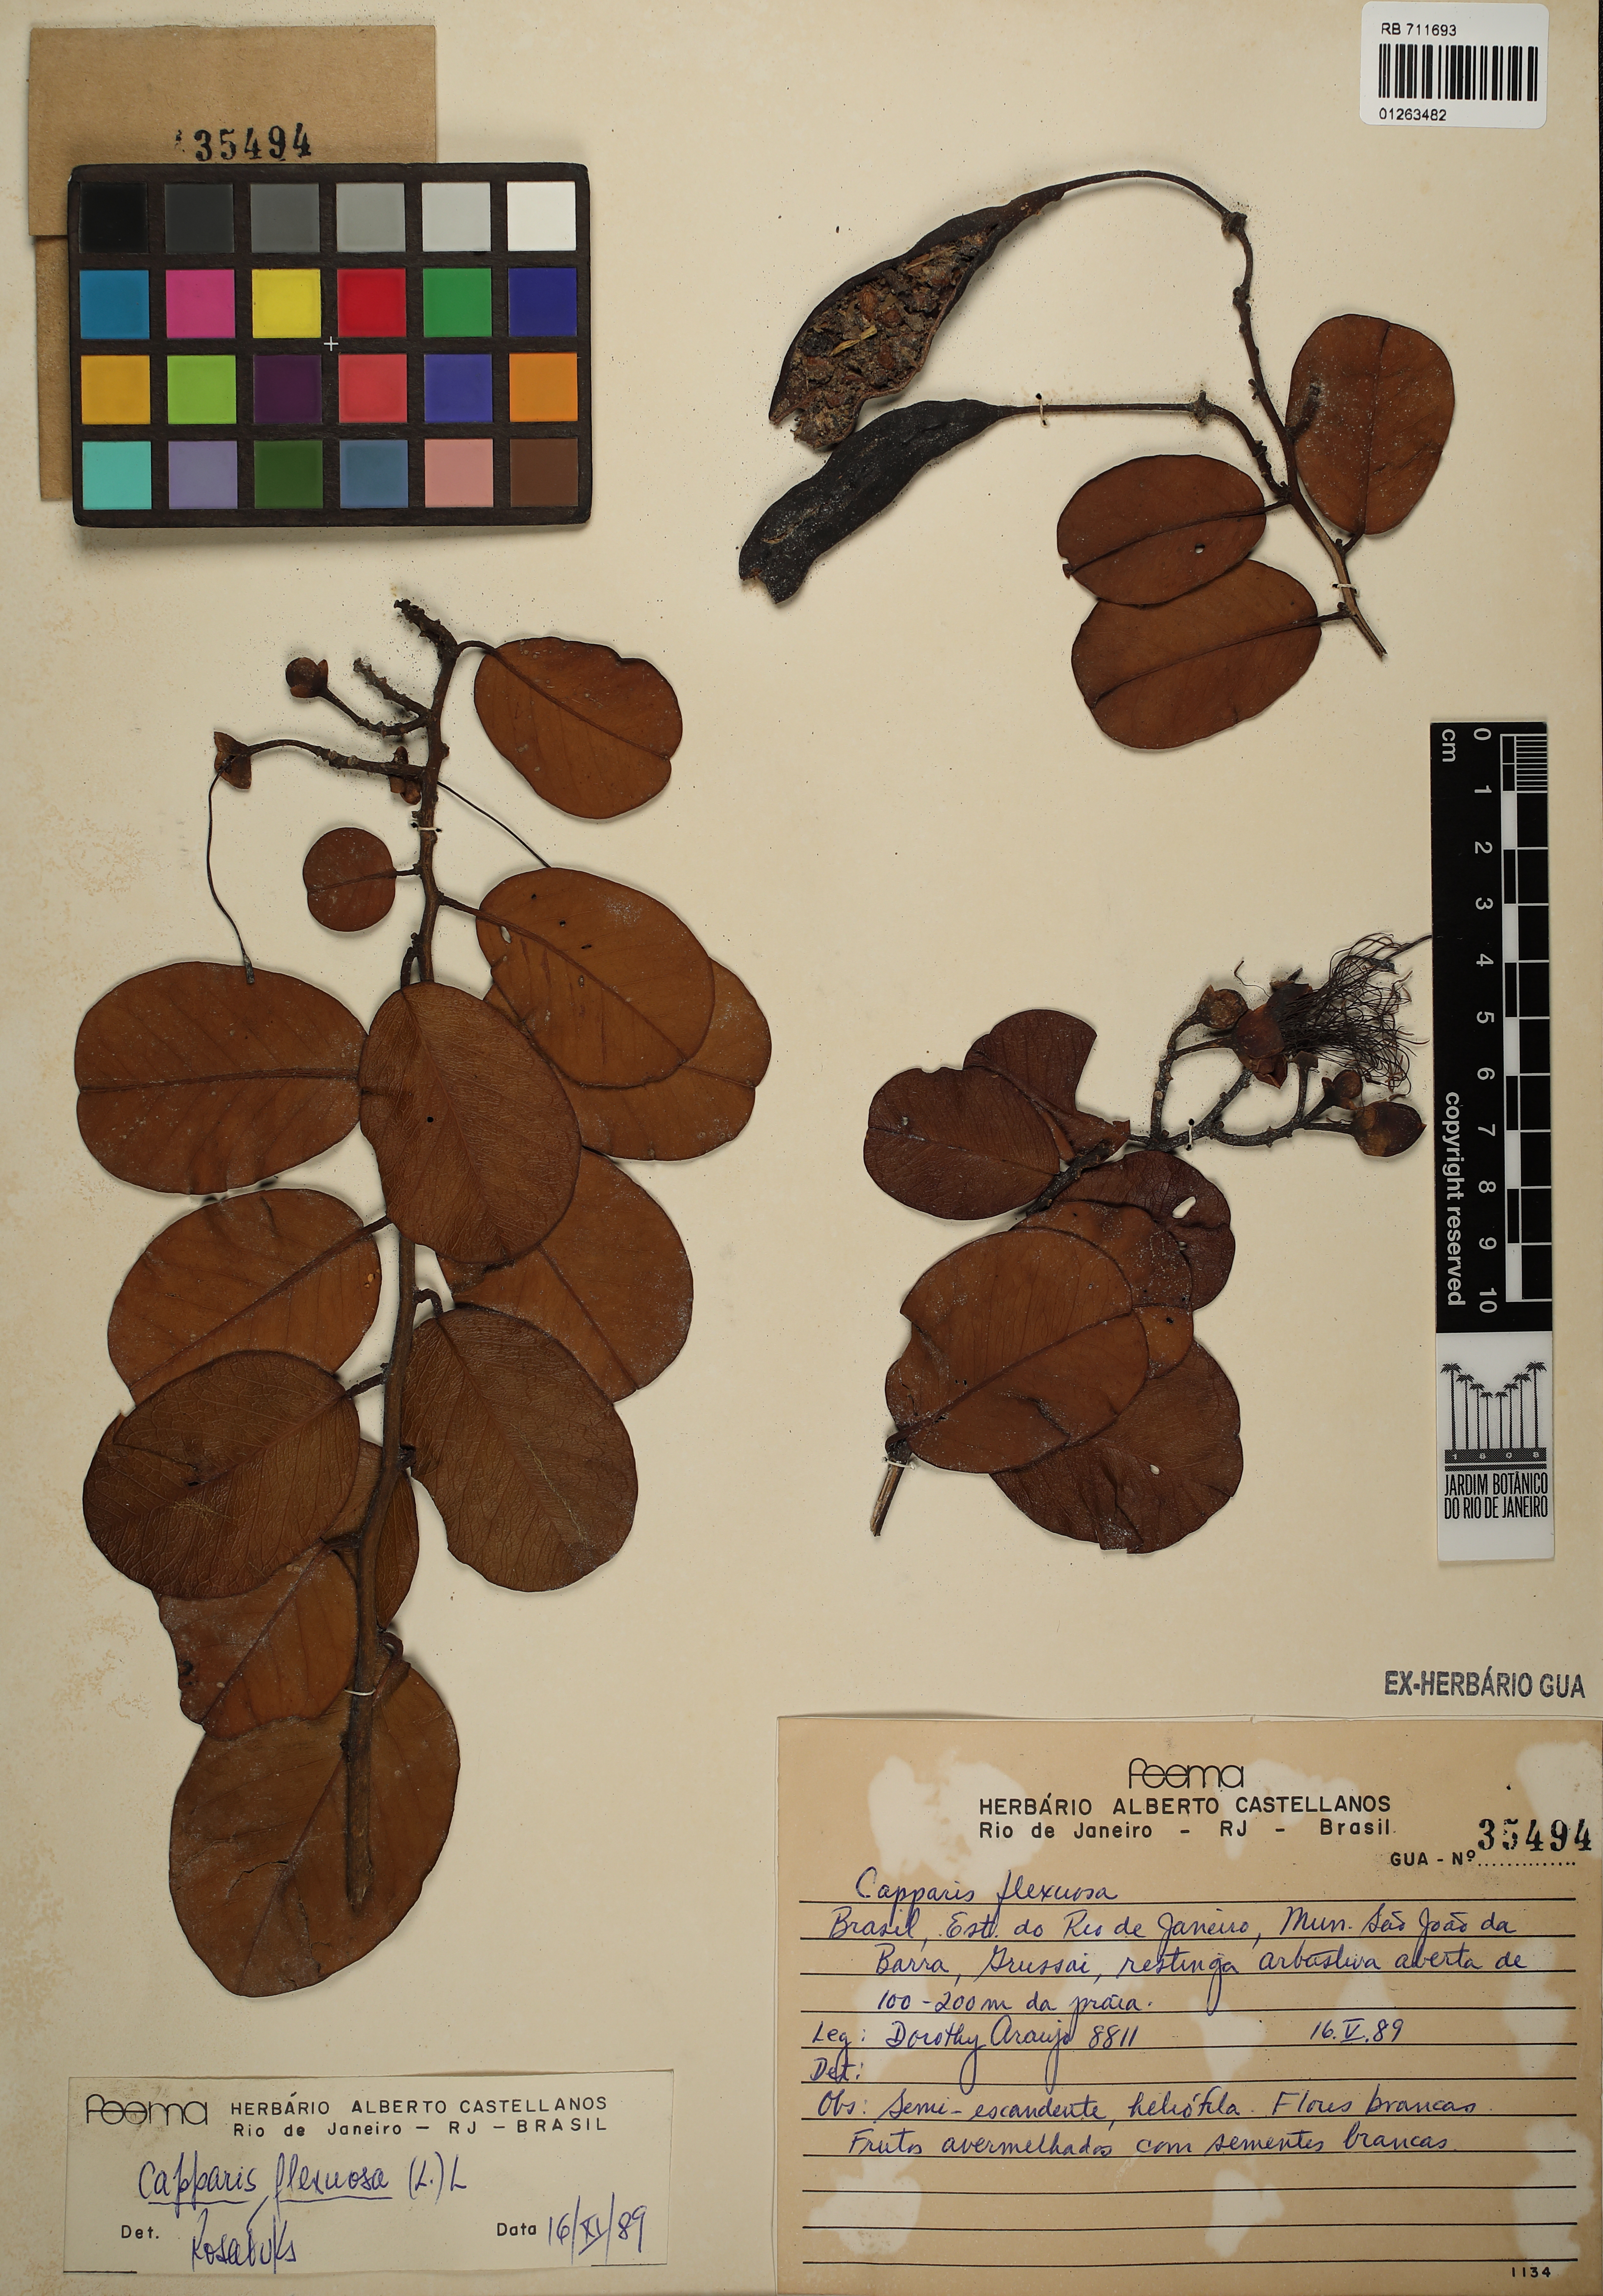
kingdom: Plantae
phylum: Tracheophyta
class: Magnoliopsida
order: Brassicales
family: Capparaceae
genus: Cynophalla
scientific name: Cynophalla flexuosa
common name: Capertree
